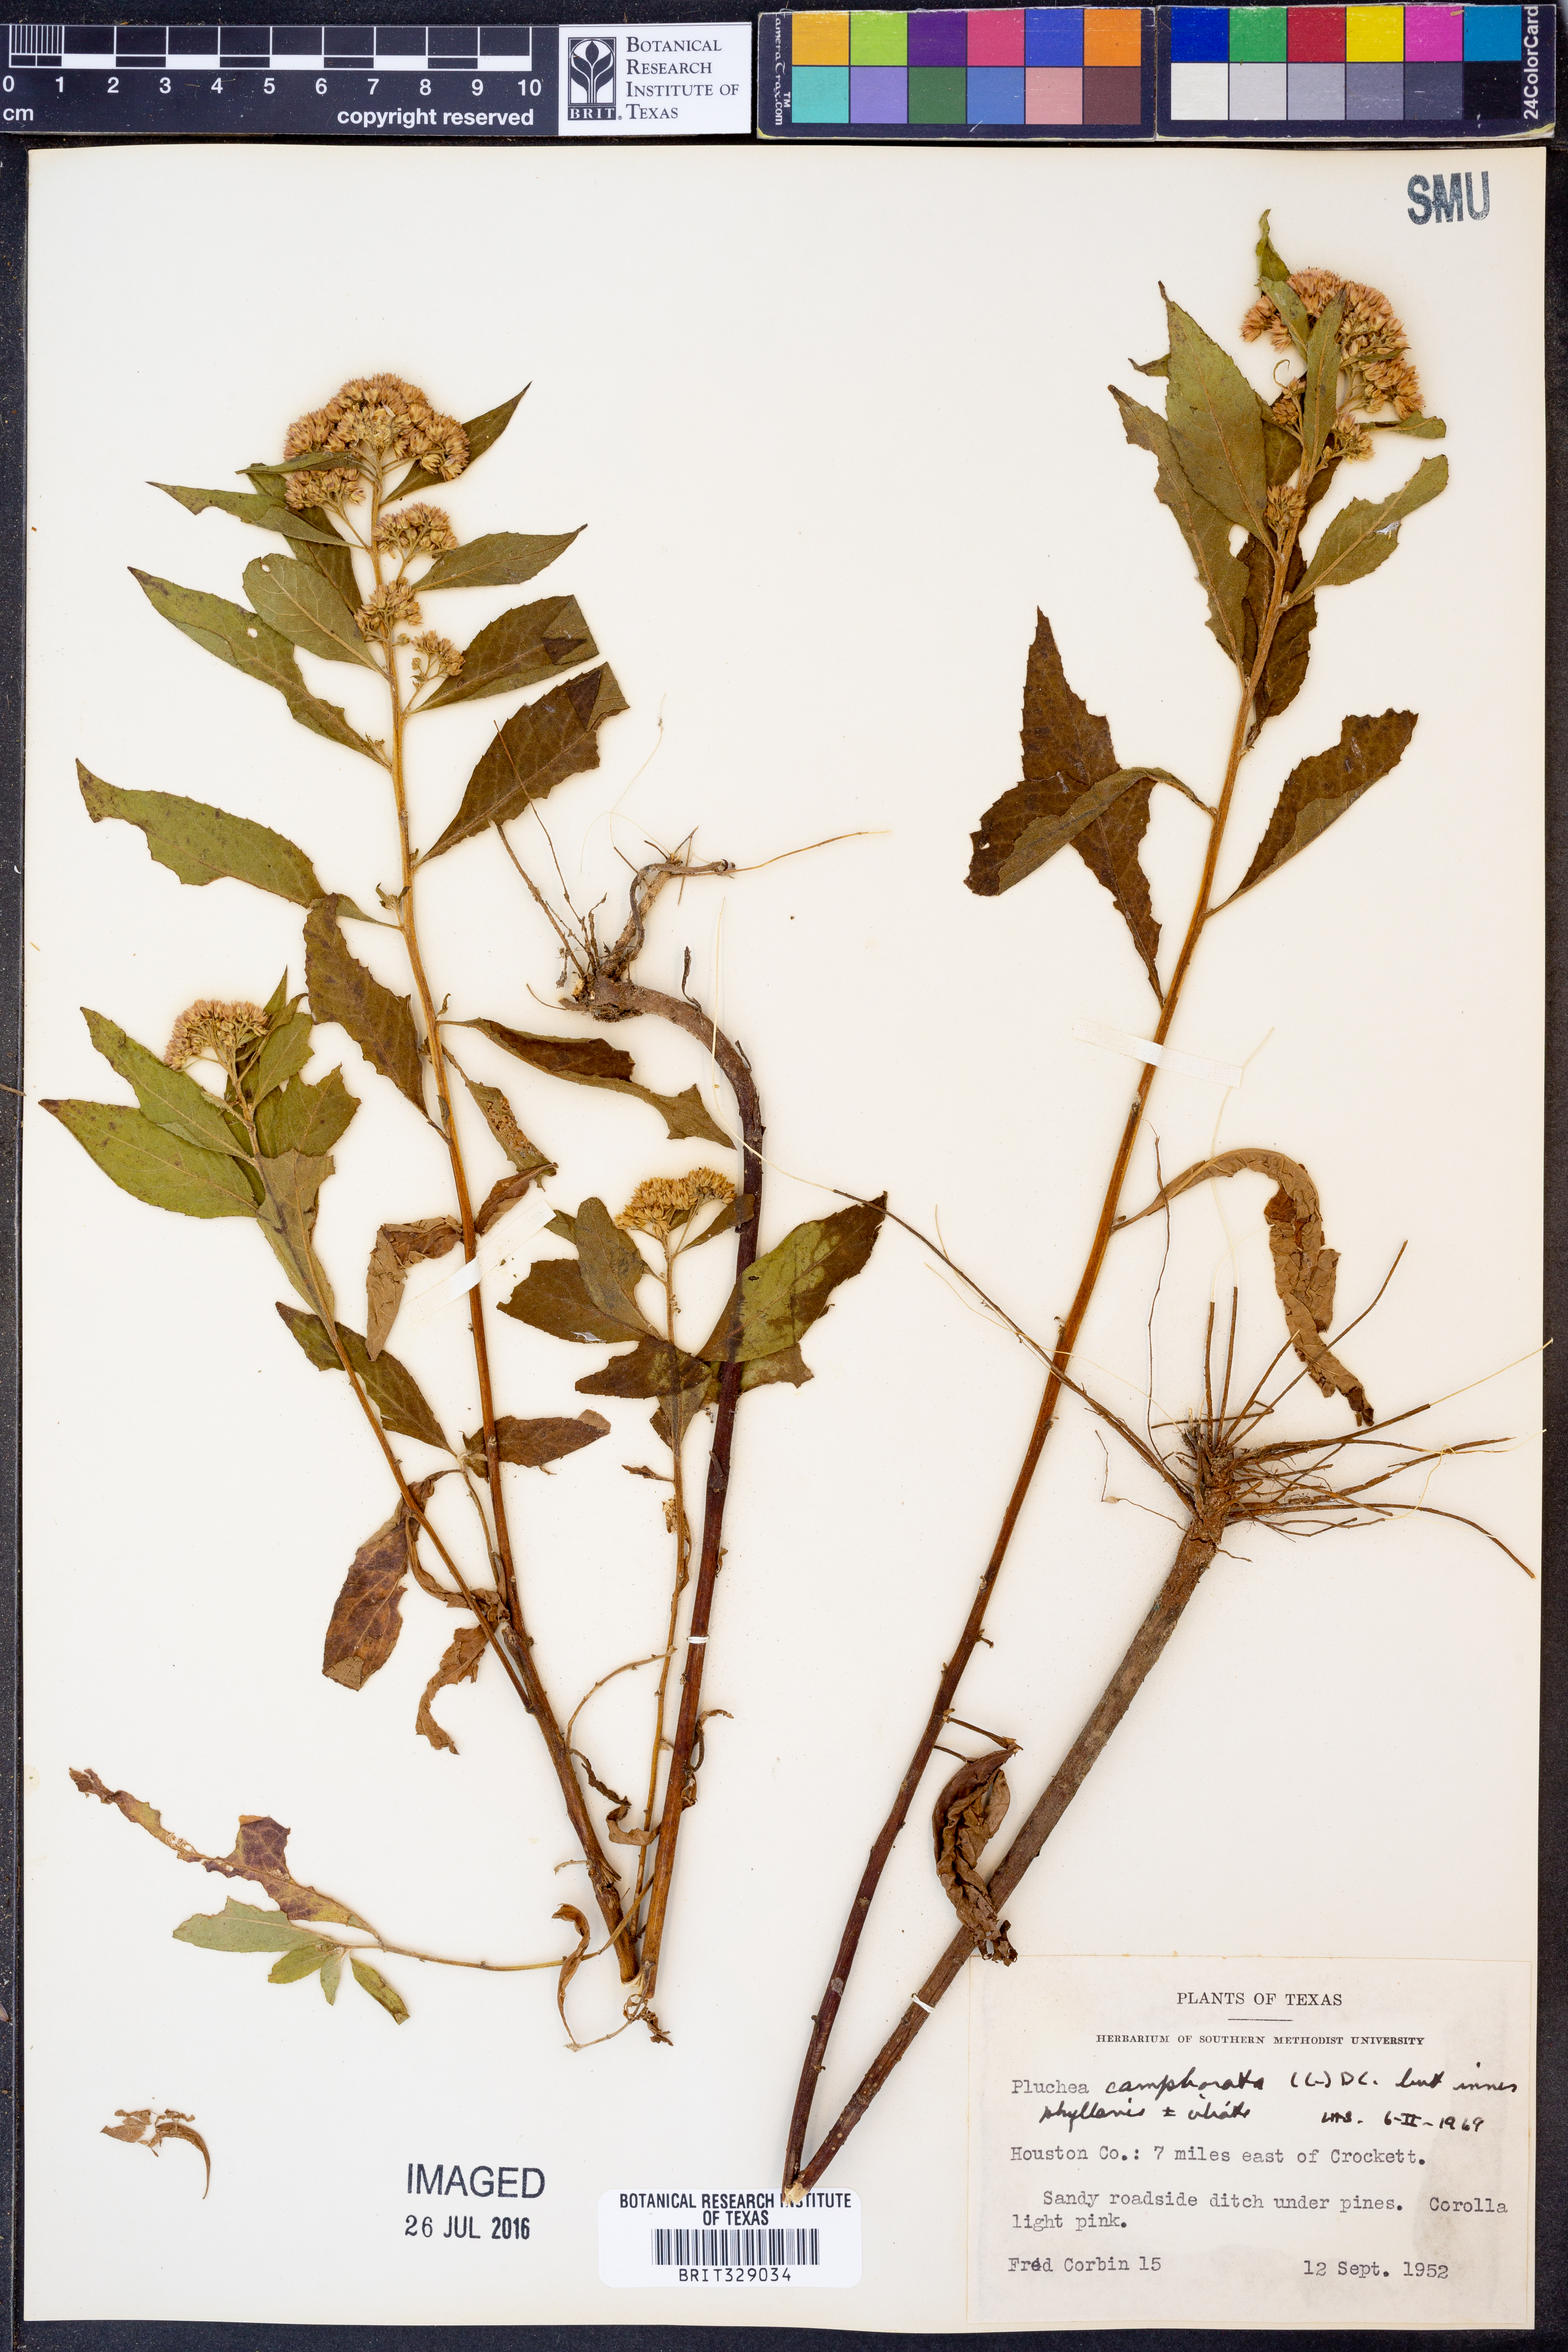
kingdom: Plantae
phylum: Tracheophyta
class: Magnoliopsida
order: Asterales
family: Asteraceae
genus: Pluchea
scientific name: Pluchea camphorata
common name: Camphor pluchea
